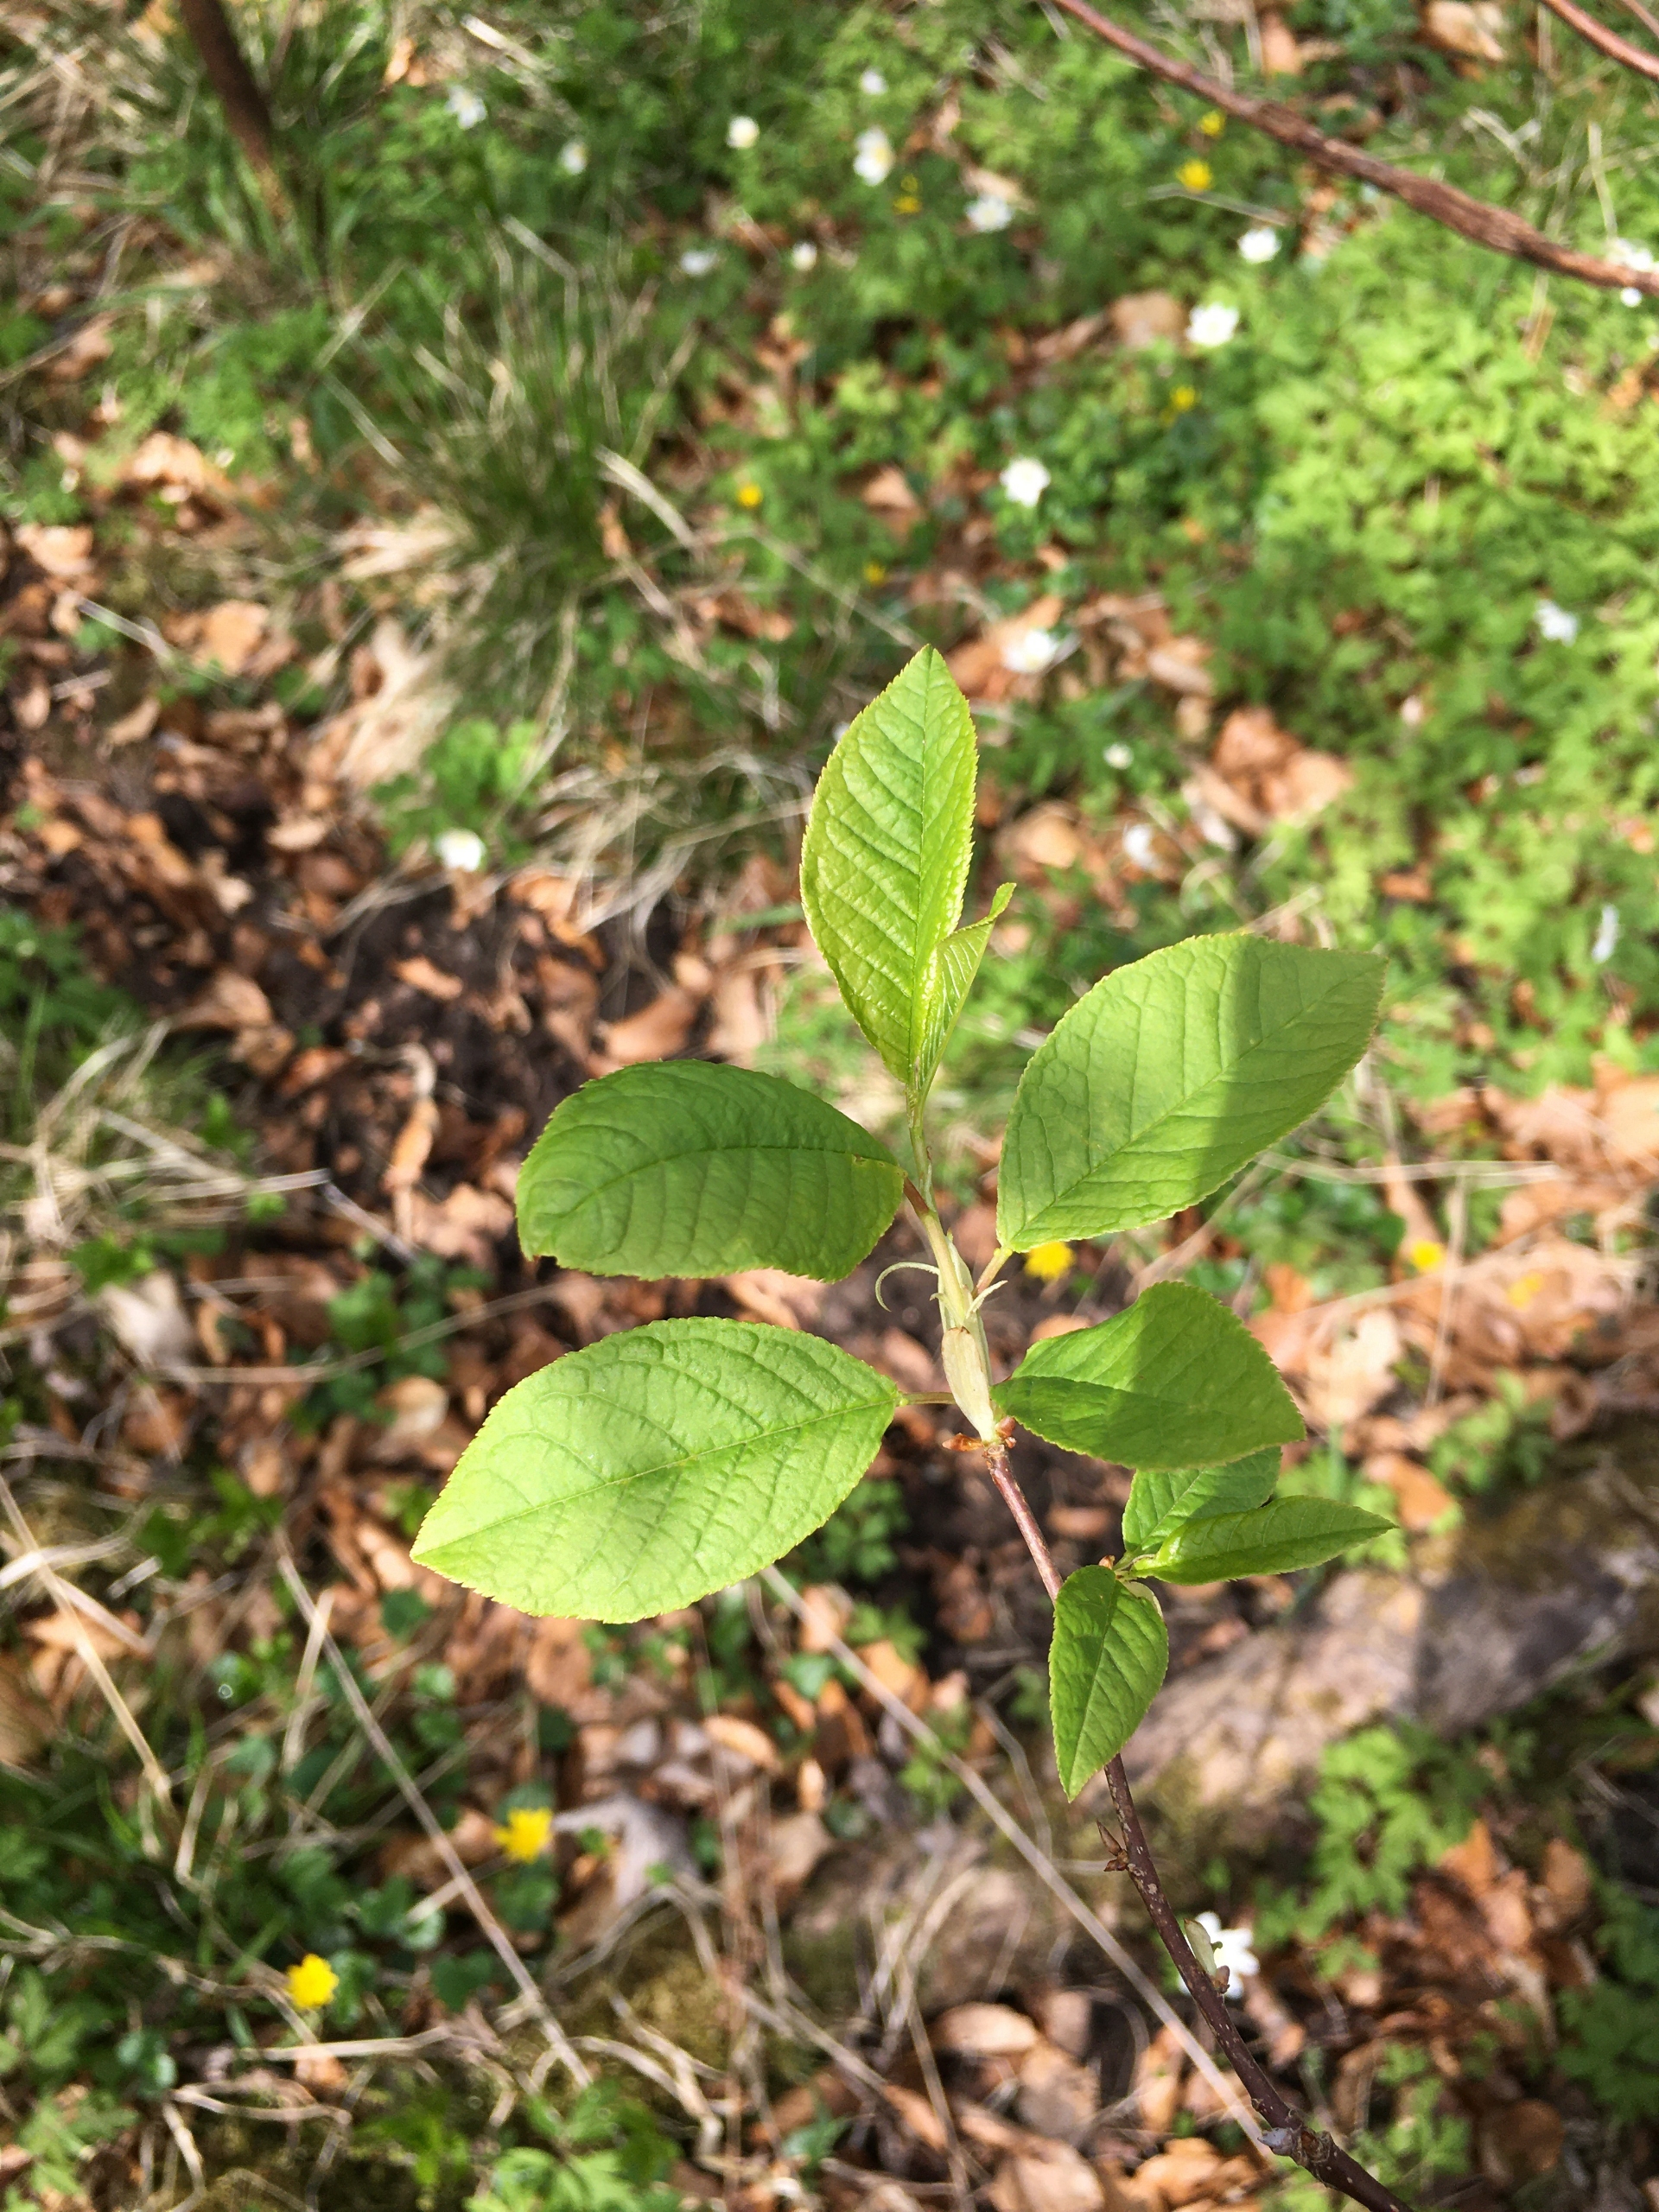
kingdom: Plantae
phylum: Tracheophyta
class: Magnoliopsida
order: Rosales
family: Rosaceae
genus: Prunus
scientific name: Prunus padus
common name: Almindelig hæg
